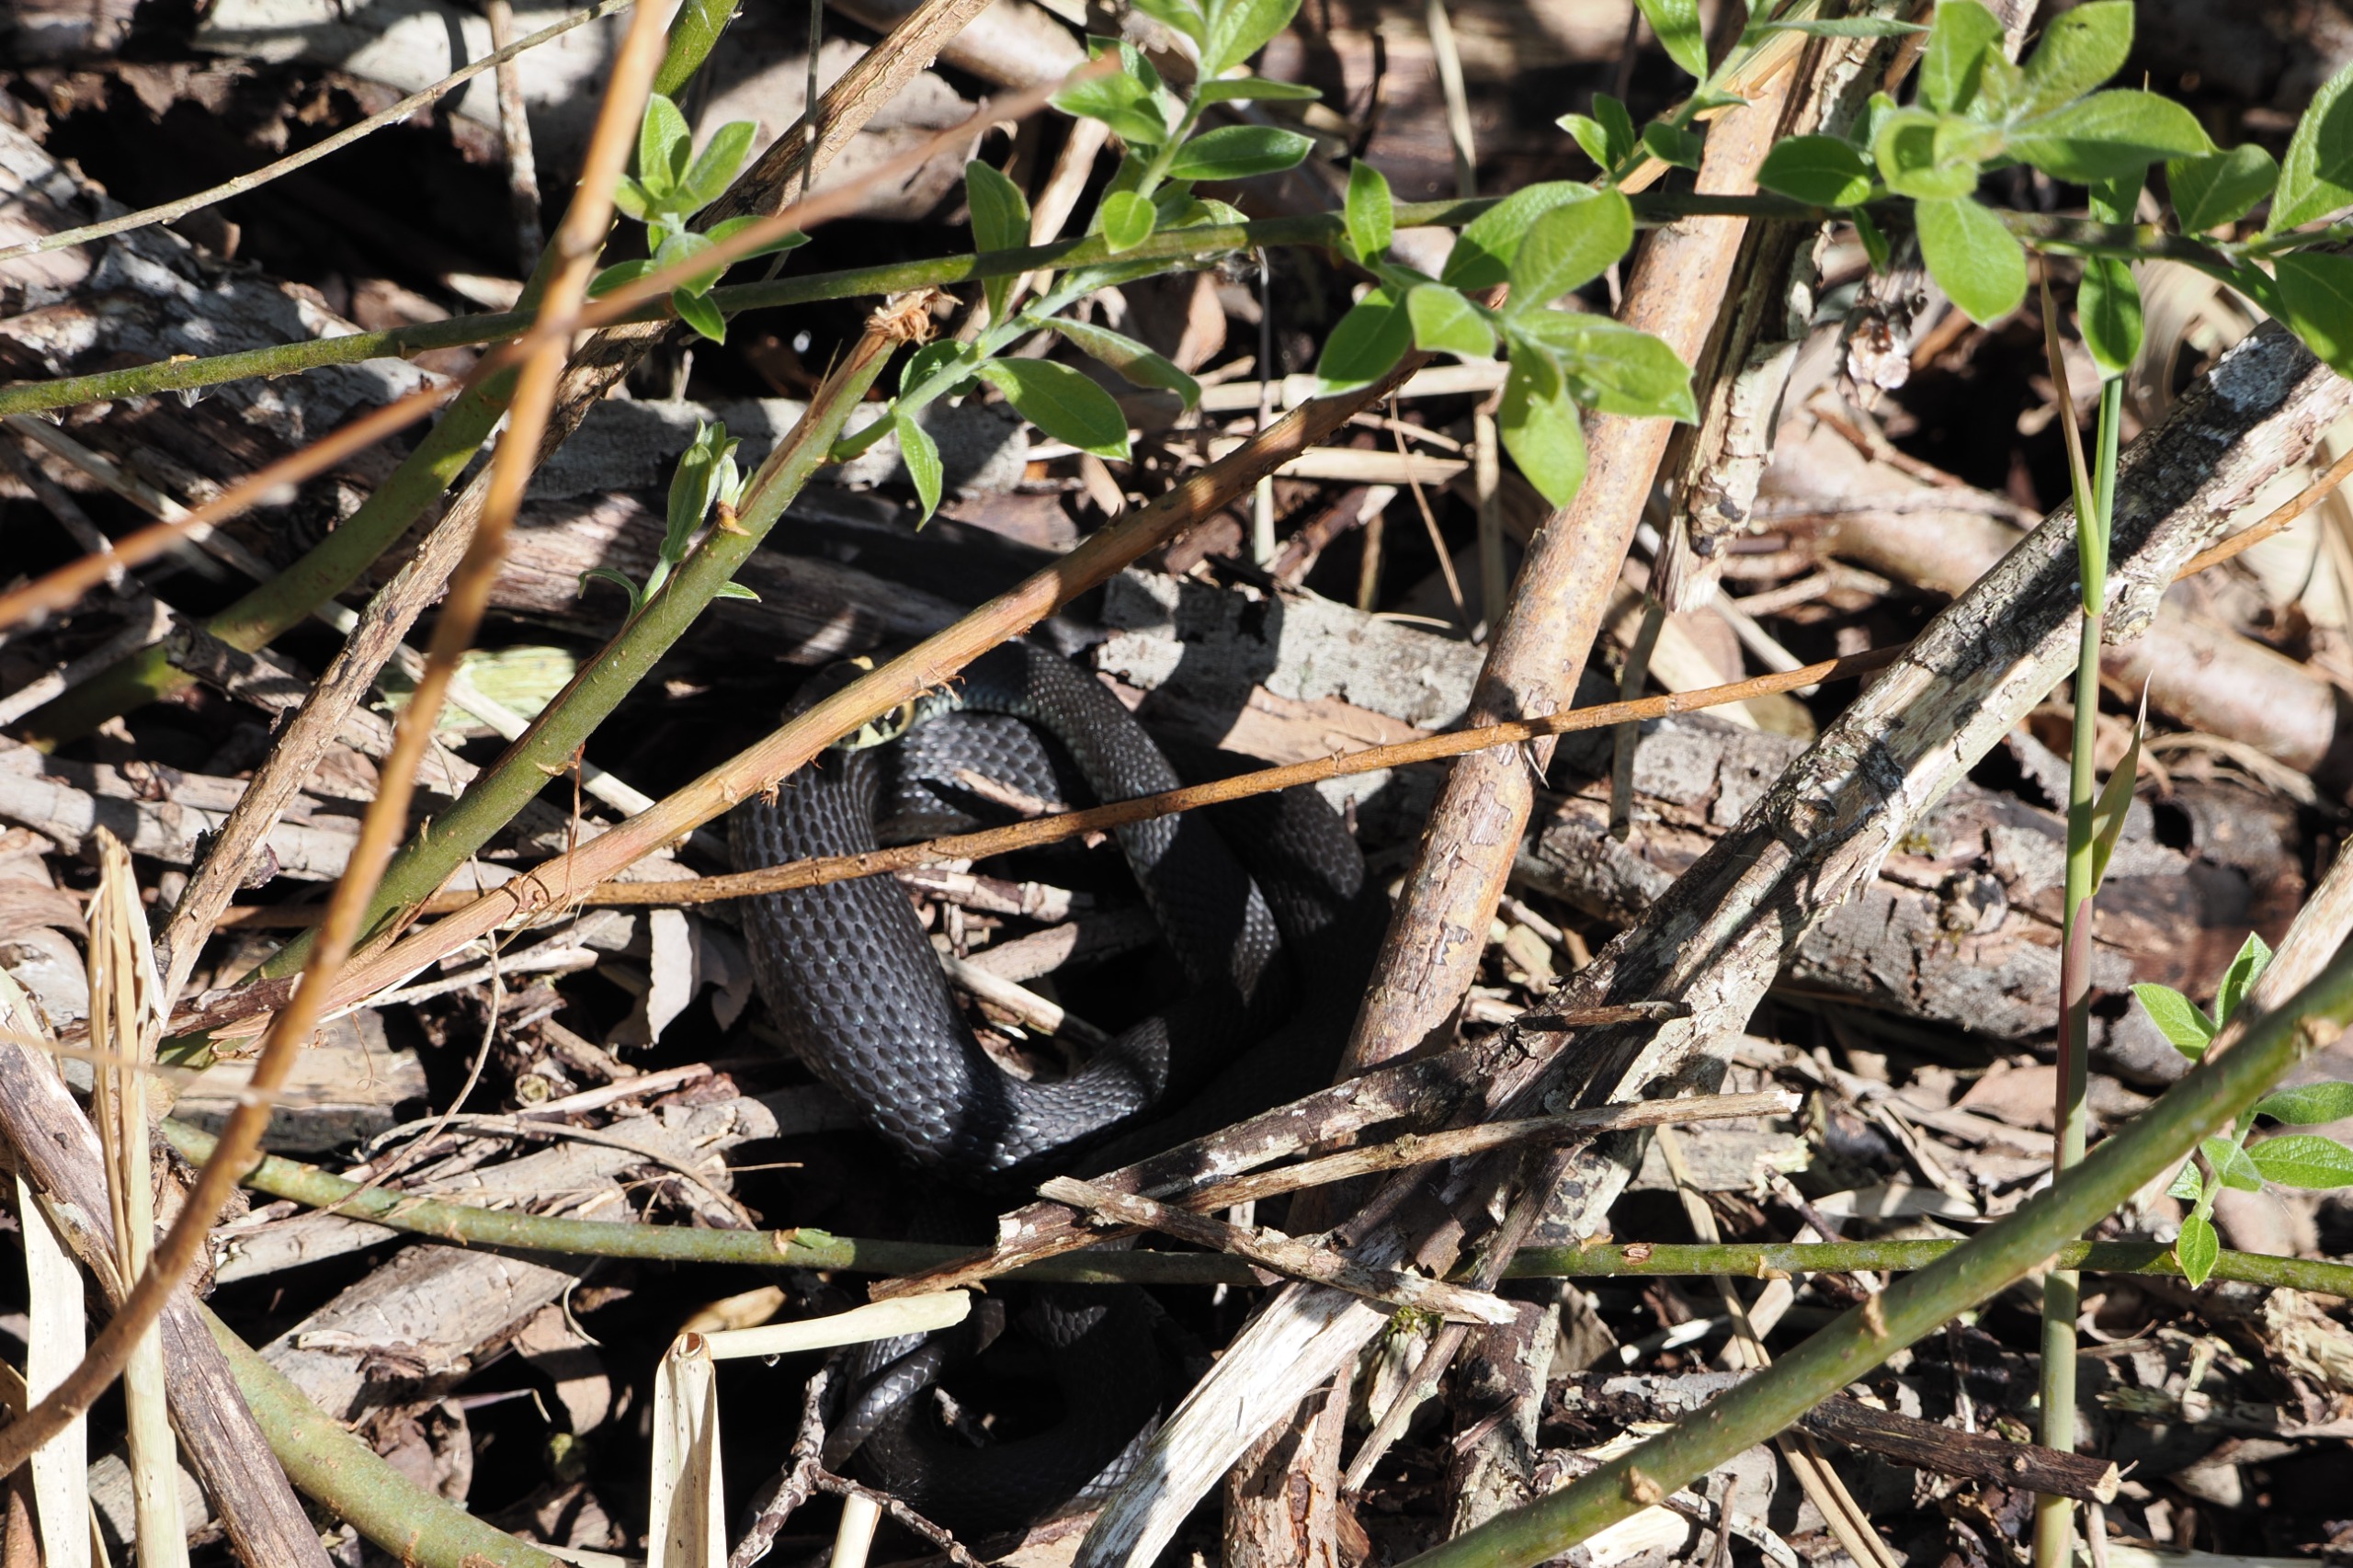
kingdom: Animalia
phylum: Chordata
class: Squamata
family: Colubridae
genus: Natrix
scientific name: Natrix natrix
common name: Snog
